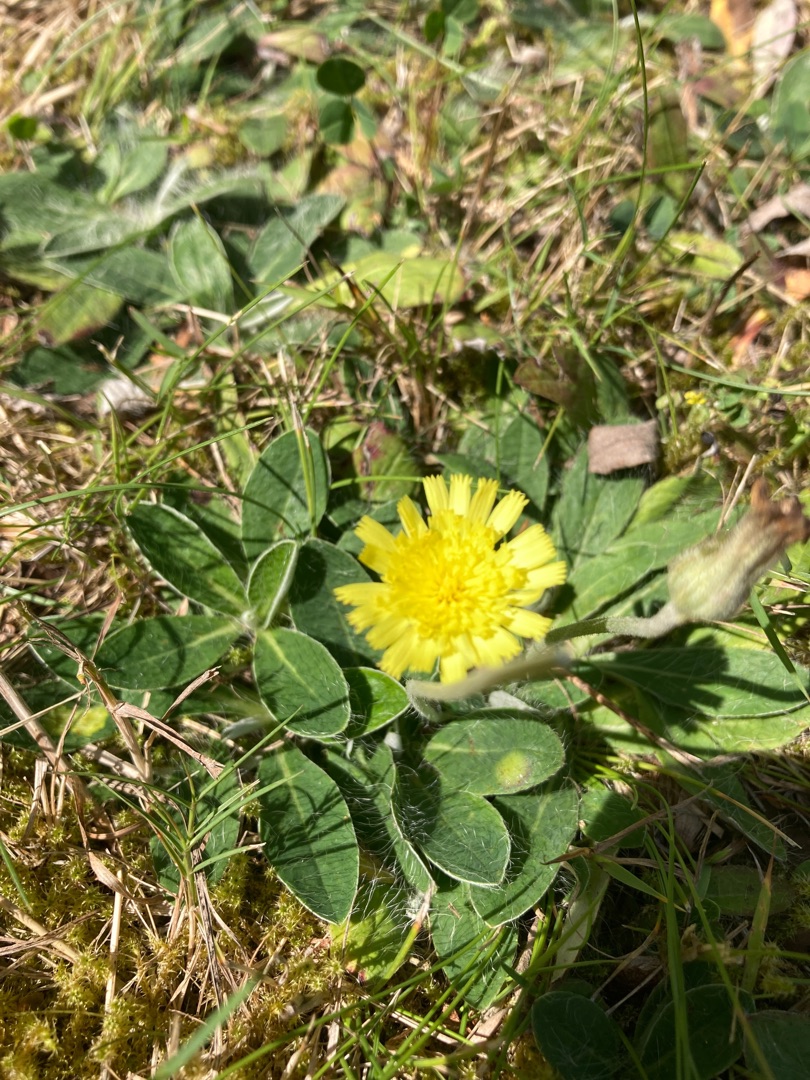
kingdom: Plantae
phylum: Tracheophyta
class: Magnoliopsida
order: Asterales
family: Asteraceae
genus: Pilosella
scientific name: Pilosella officinarum
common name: Håret høgeurt
